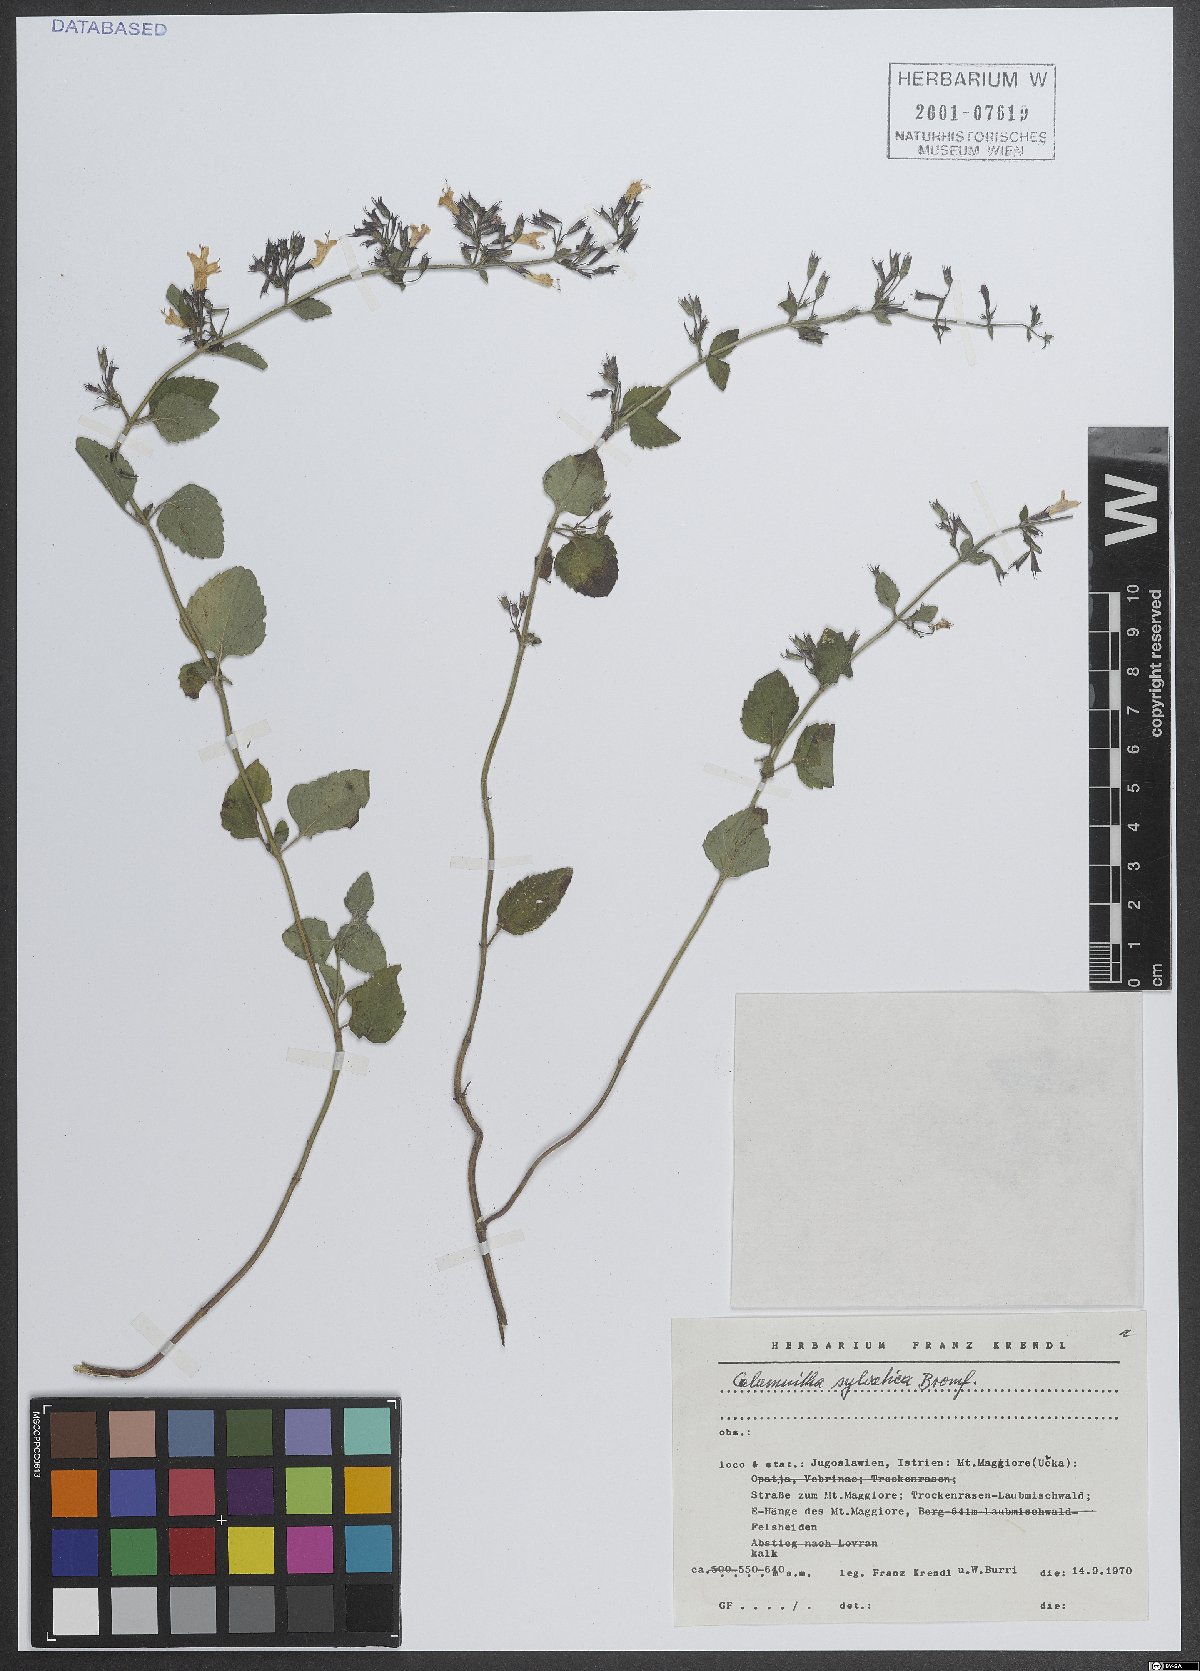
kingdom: Plantae
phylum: Tracheophyta
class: Magnoliopsida
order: Lamiales
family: Lamiaceae
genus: Clinopodium
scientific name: Clinopodium menthifolium
